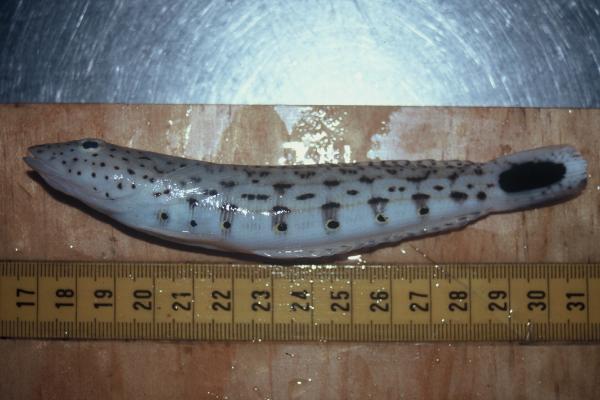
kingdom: Animalia
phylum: Chordata
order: Perciformes
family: Pinguipedidae
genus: Parapercis
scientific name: Parapercis hexophtalma
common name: Speckled sandperch
